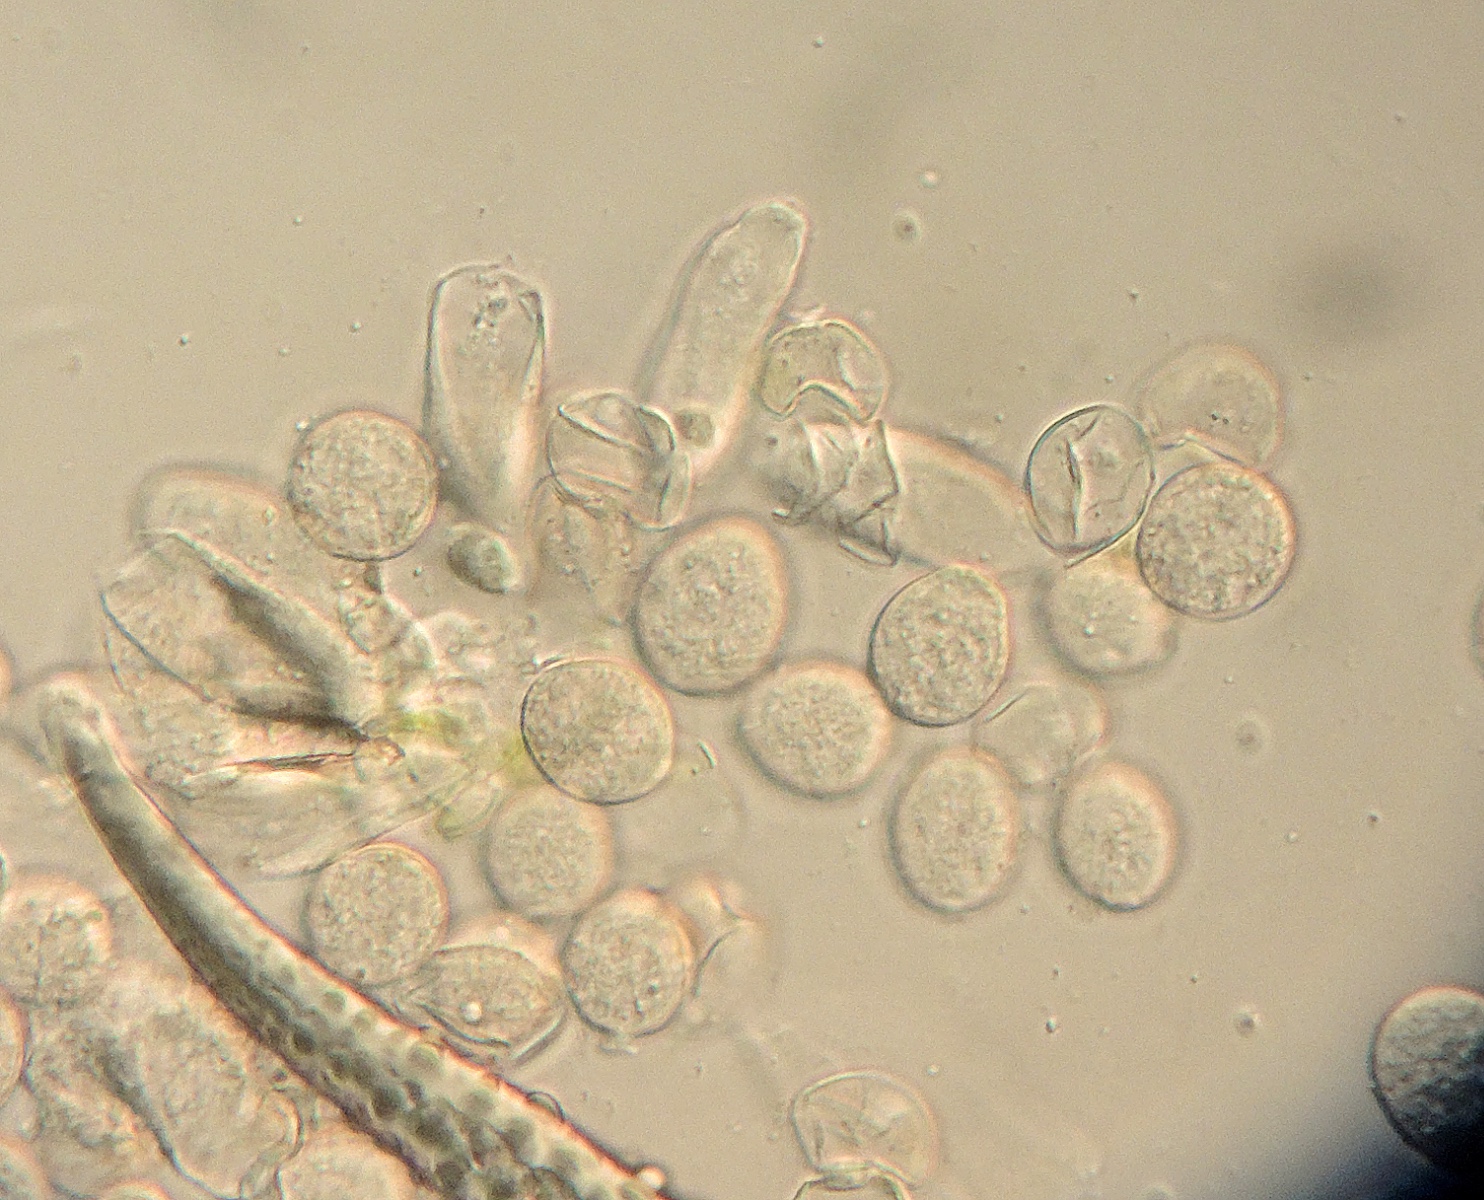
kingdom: Chromista
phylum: Oomycota
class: Peronosporea
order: Albuginales
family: Albuginaceae
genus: Albugo
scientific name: Albugo candida
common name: Crucifer white blister
